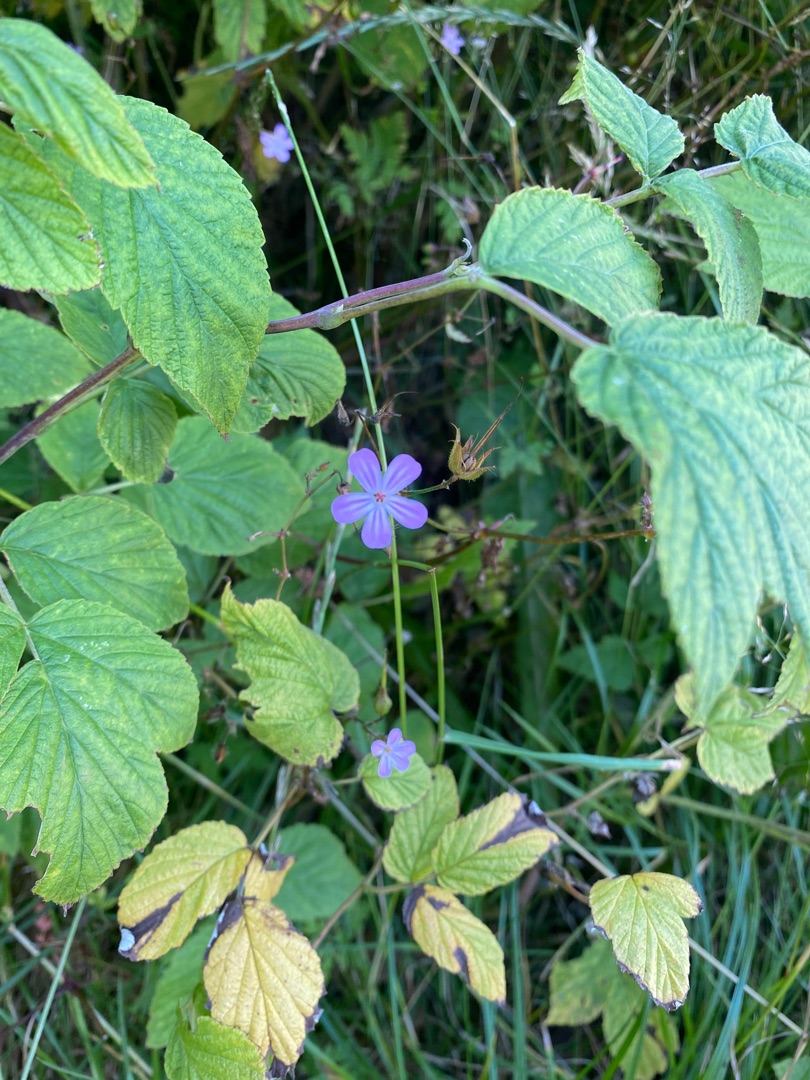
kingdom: Plantae
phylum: Tracheophyta
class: Magnoliopsida
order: Geraniales
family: Geraniaceae
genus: Geranium
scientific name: Geranium robertianum
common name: Stinkende storkenæb
